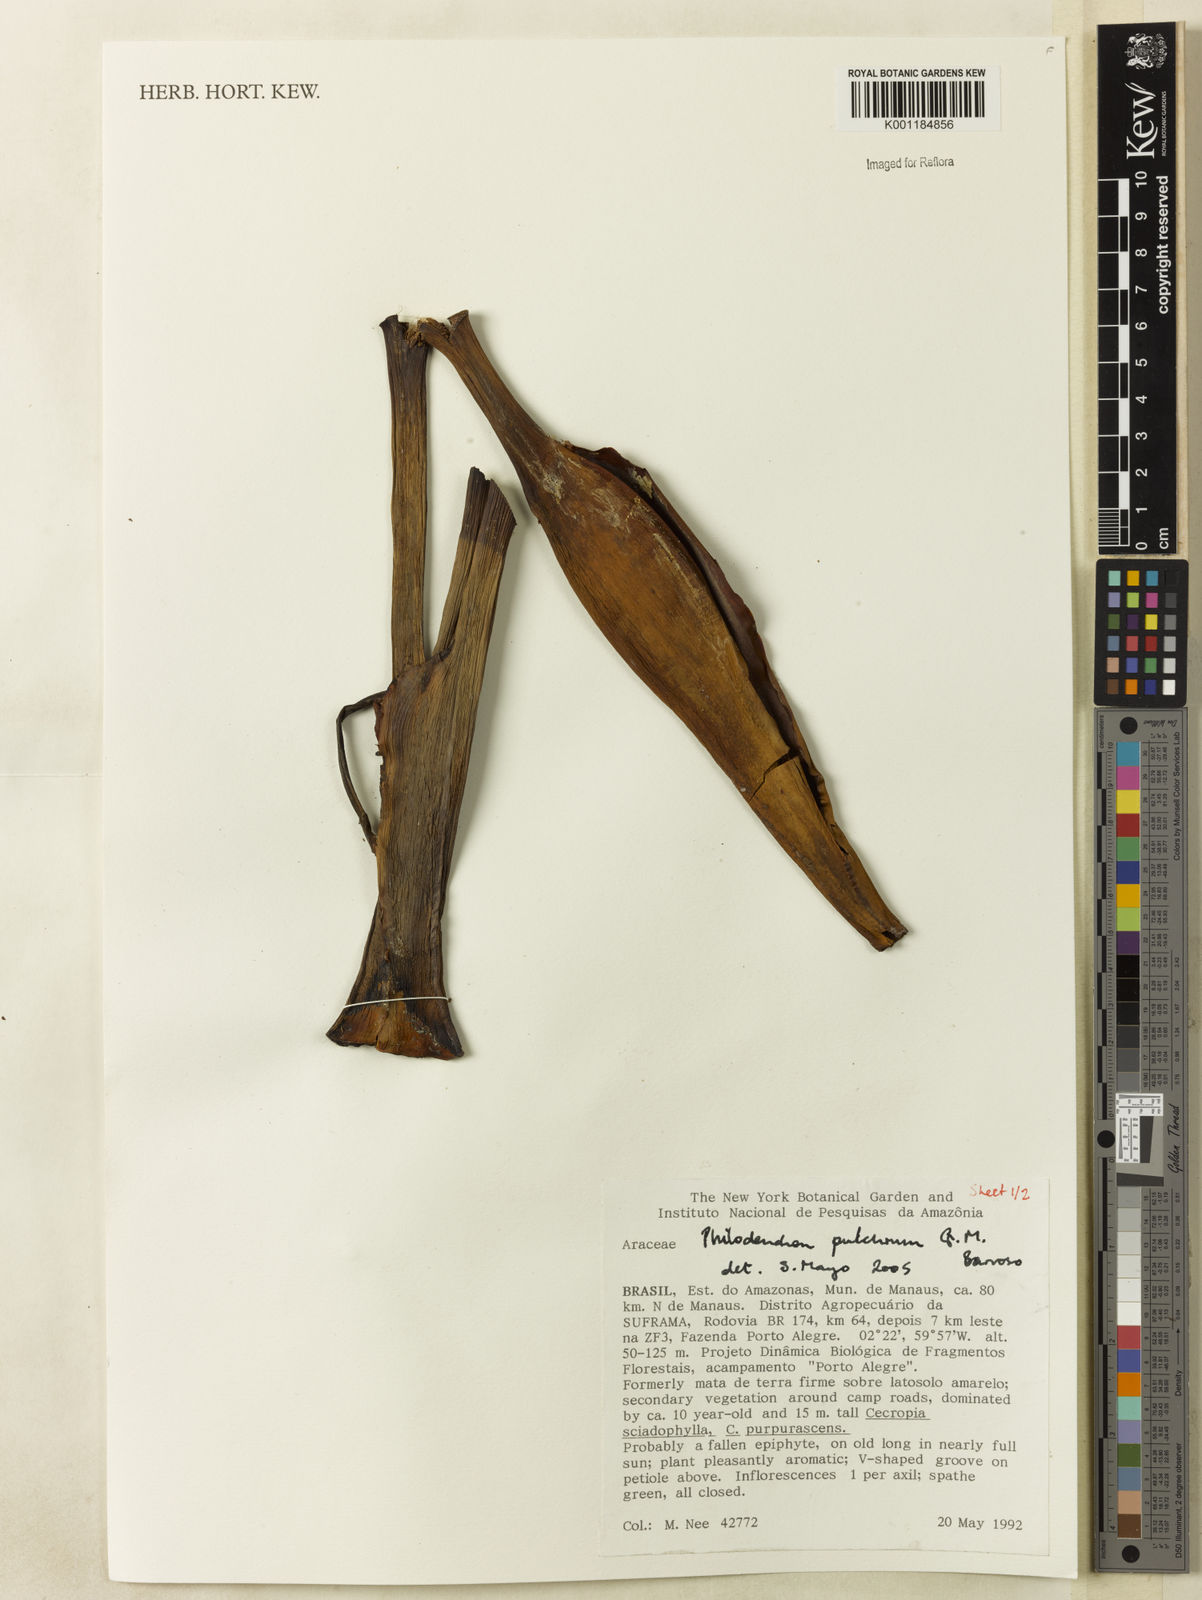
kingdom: Plantae
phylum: Tracheophyta
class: Liliopsida
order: Alismatales
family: Araceae
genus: Philodendron
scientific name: Philodendron pulchrum
